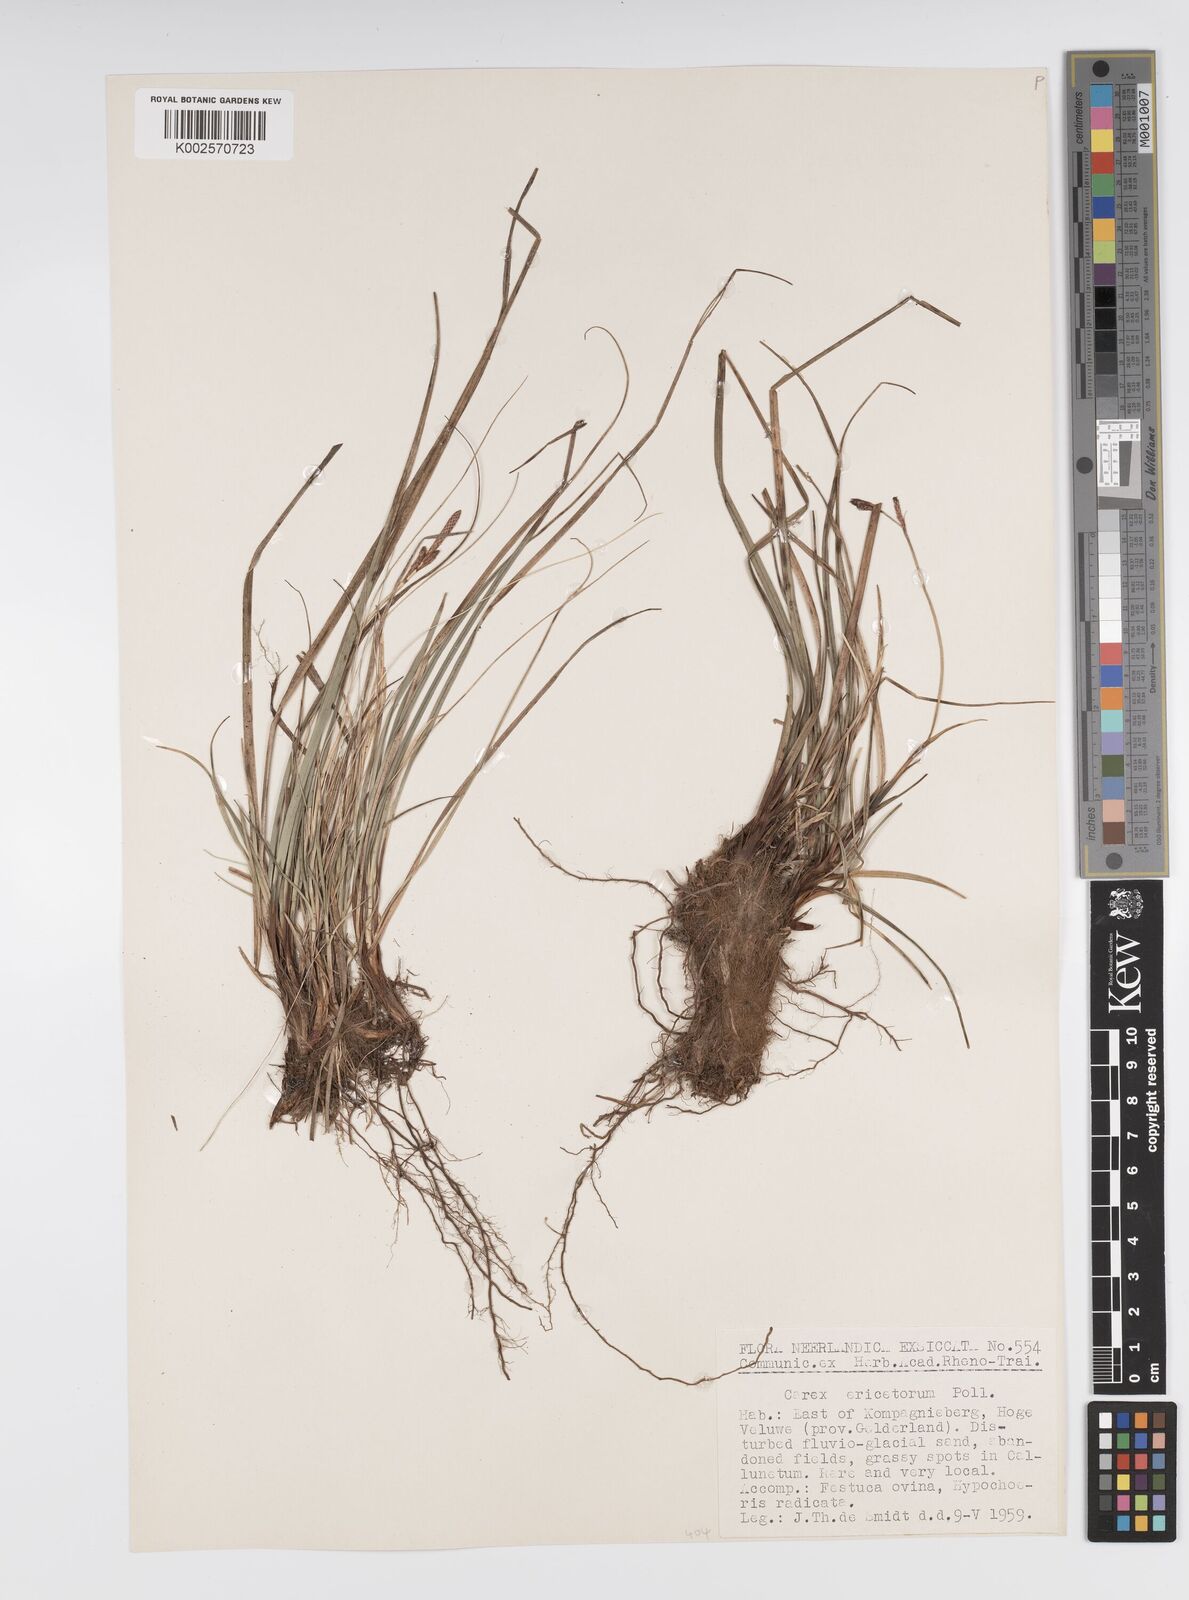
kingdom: Plantae
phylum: Tracheophyta
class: Liliopsida
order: Poales
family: Cyperaceae
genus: Carex
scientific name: Carex ericetorum
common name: Rare spring-sedge
